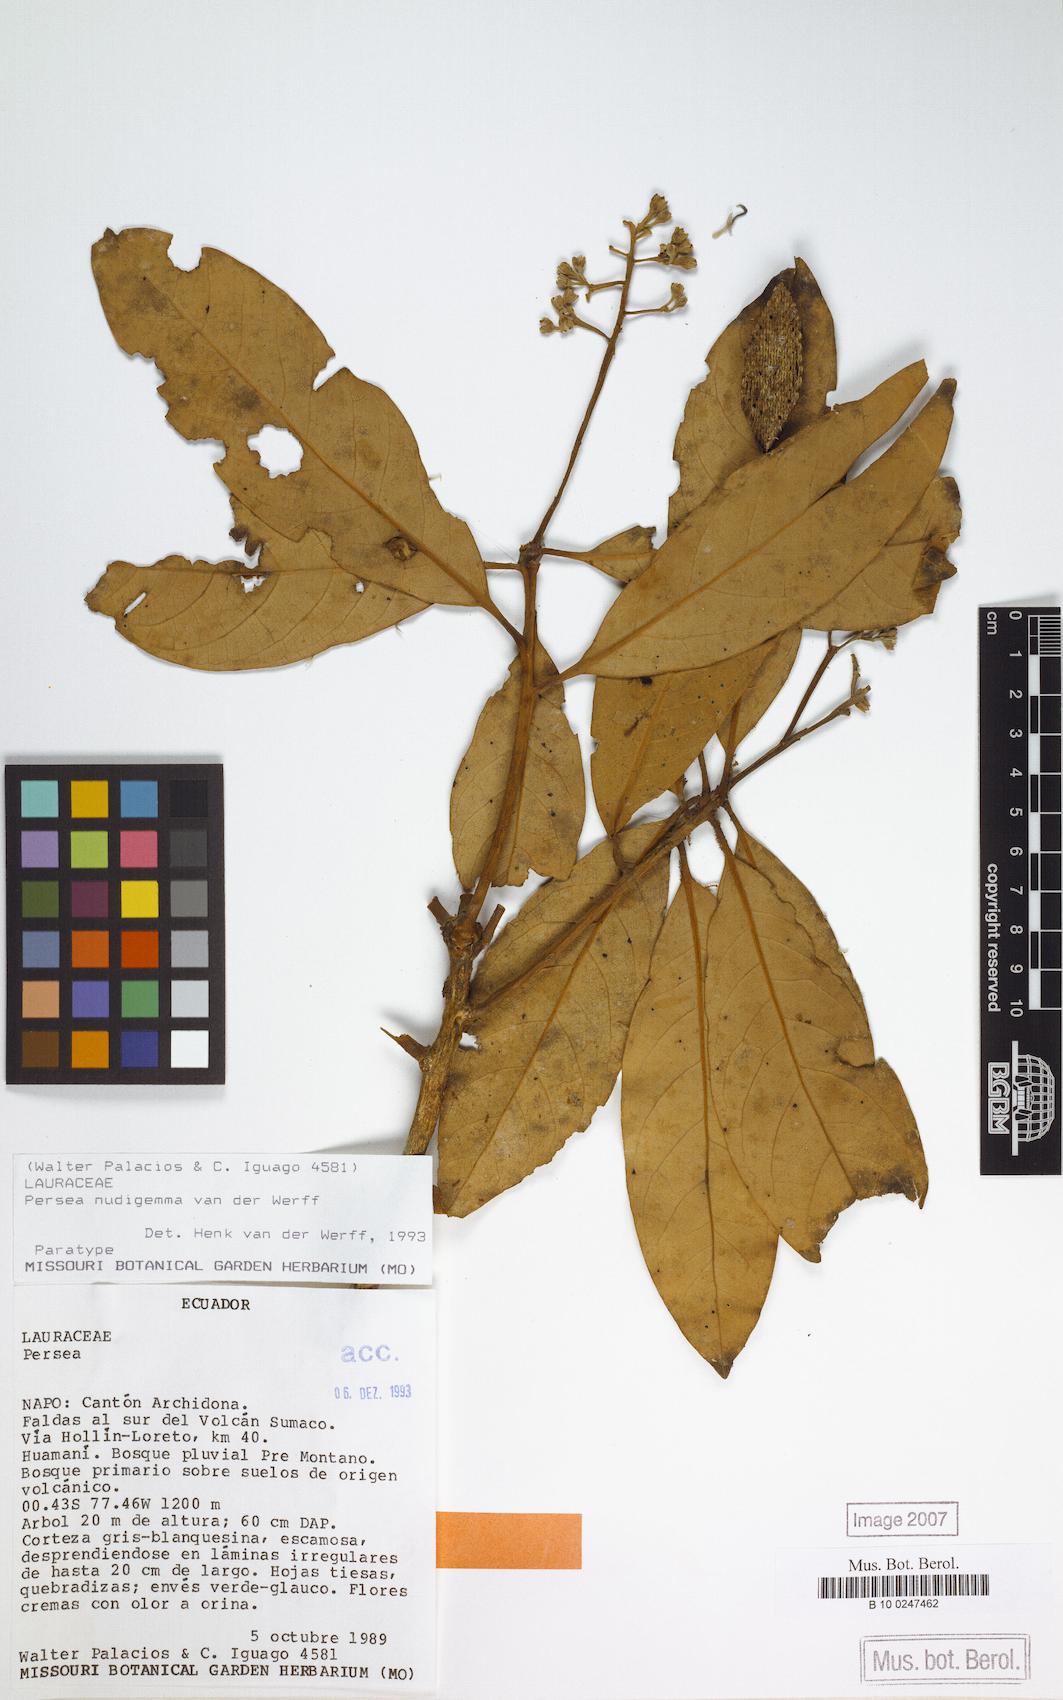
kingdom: Plantae
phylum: Tracheophyta
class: Magnoliopsida
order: Laurales
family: Lauraceae
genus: Persea
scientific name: Persea nudigemma
